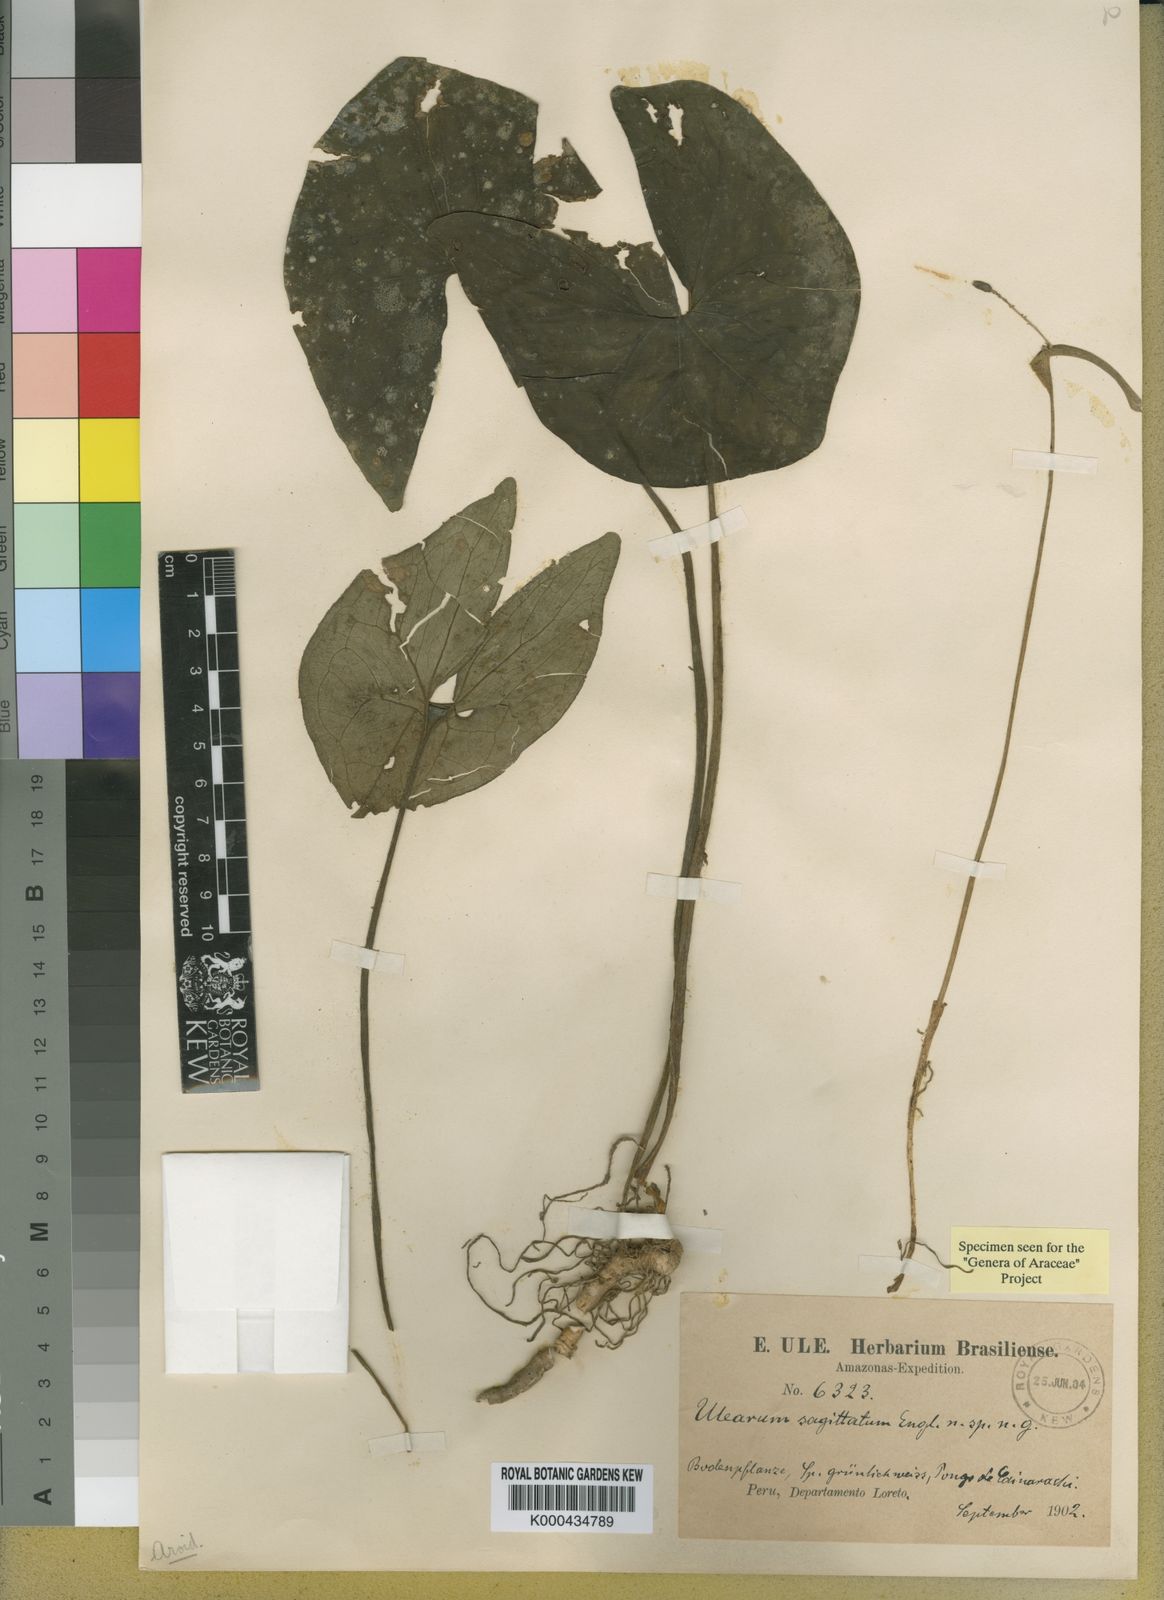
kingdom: Plantae
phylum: Tracheophyta
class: Liliopsida
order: Alismatales
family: Araceae
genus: Ulearum
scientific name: Ulearum sagittatum
